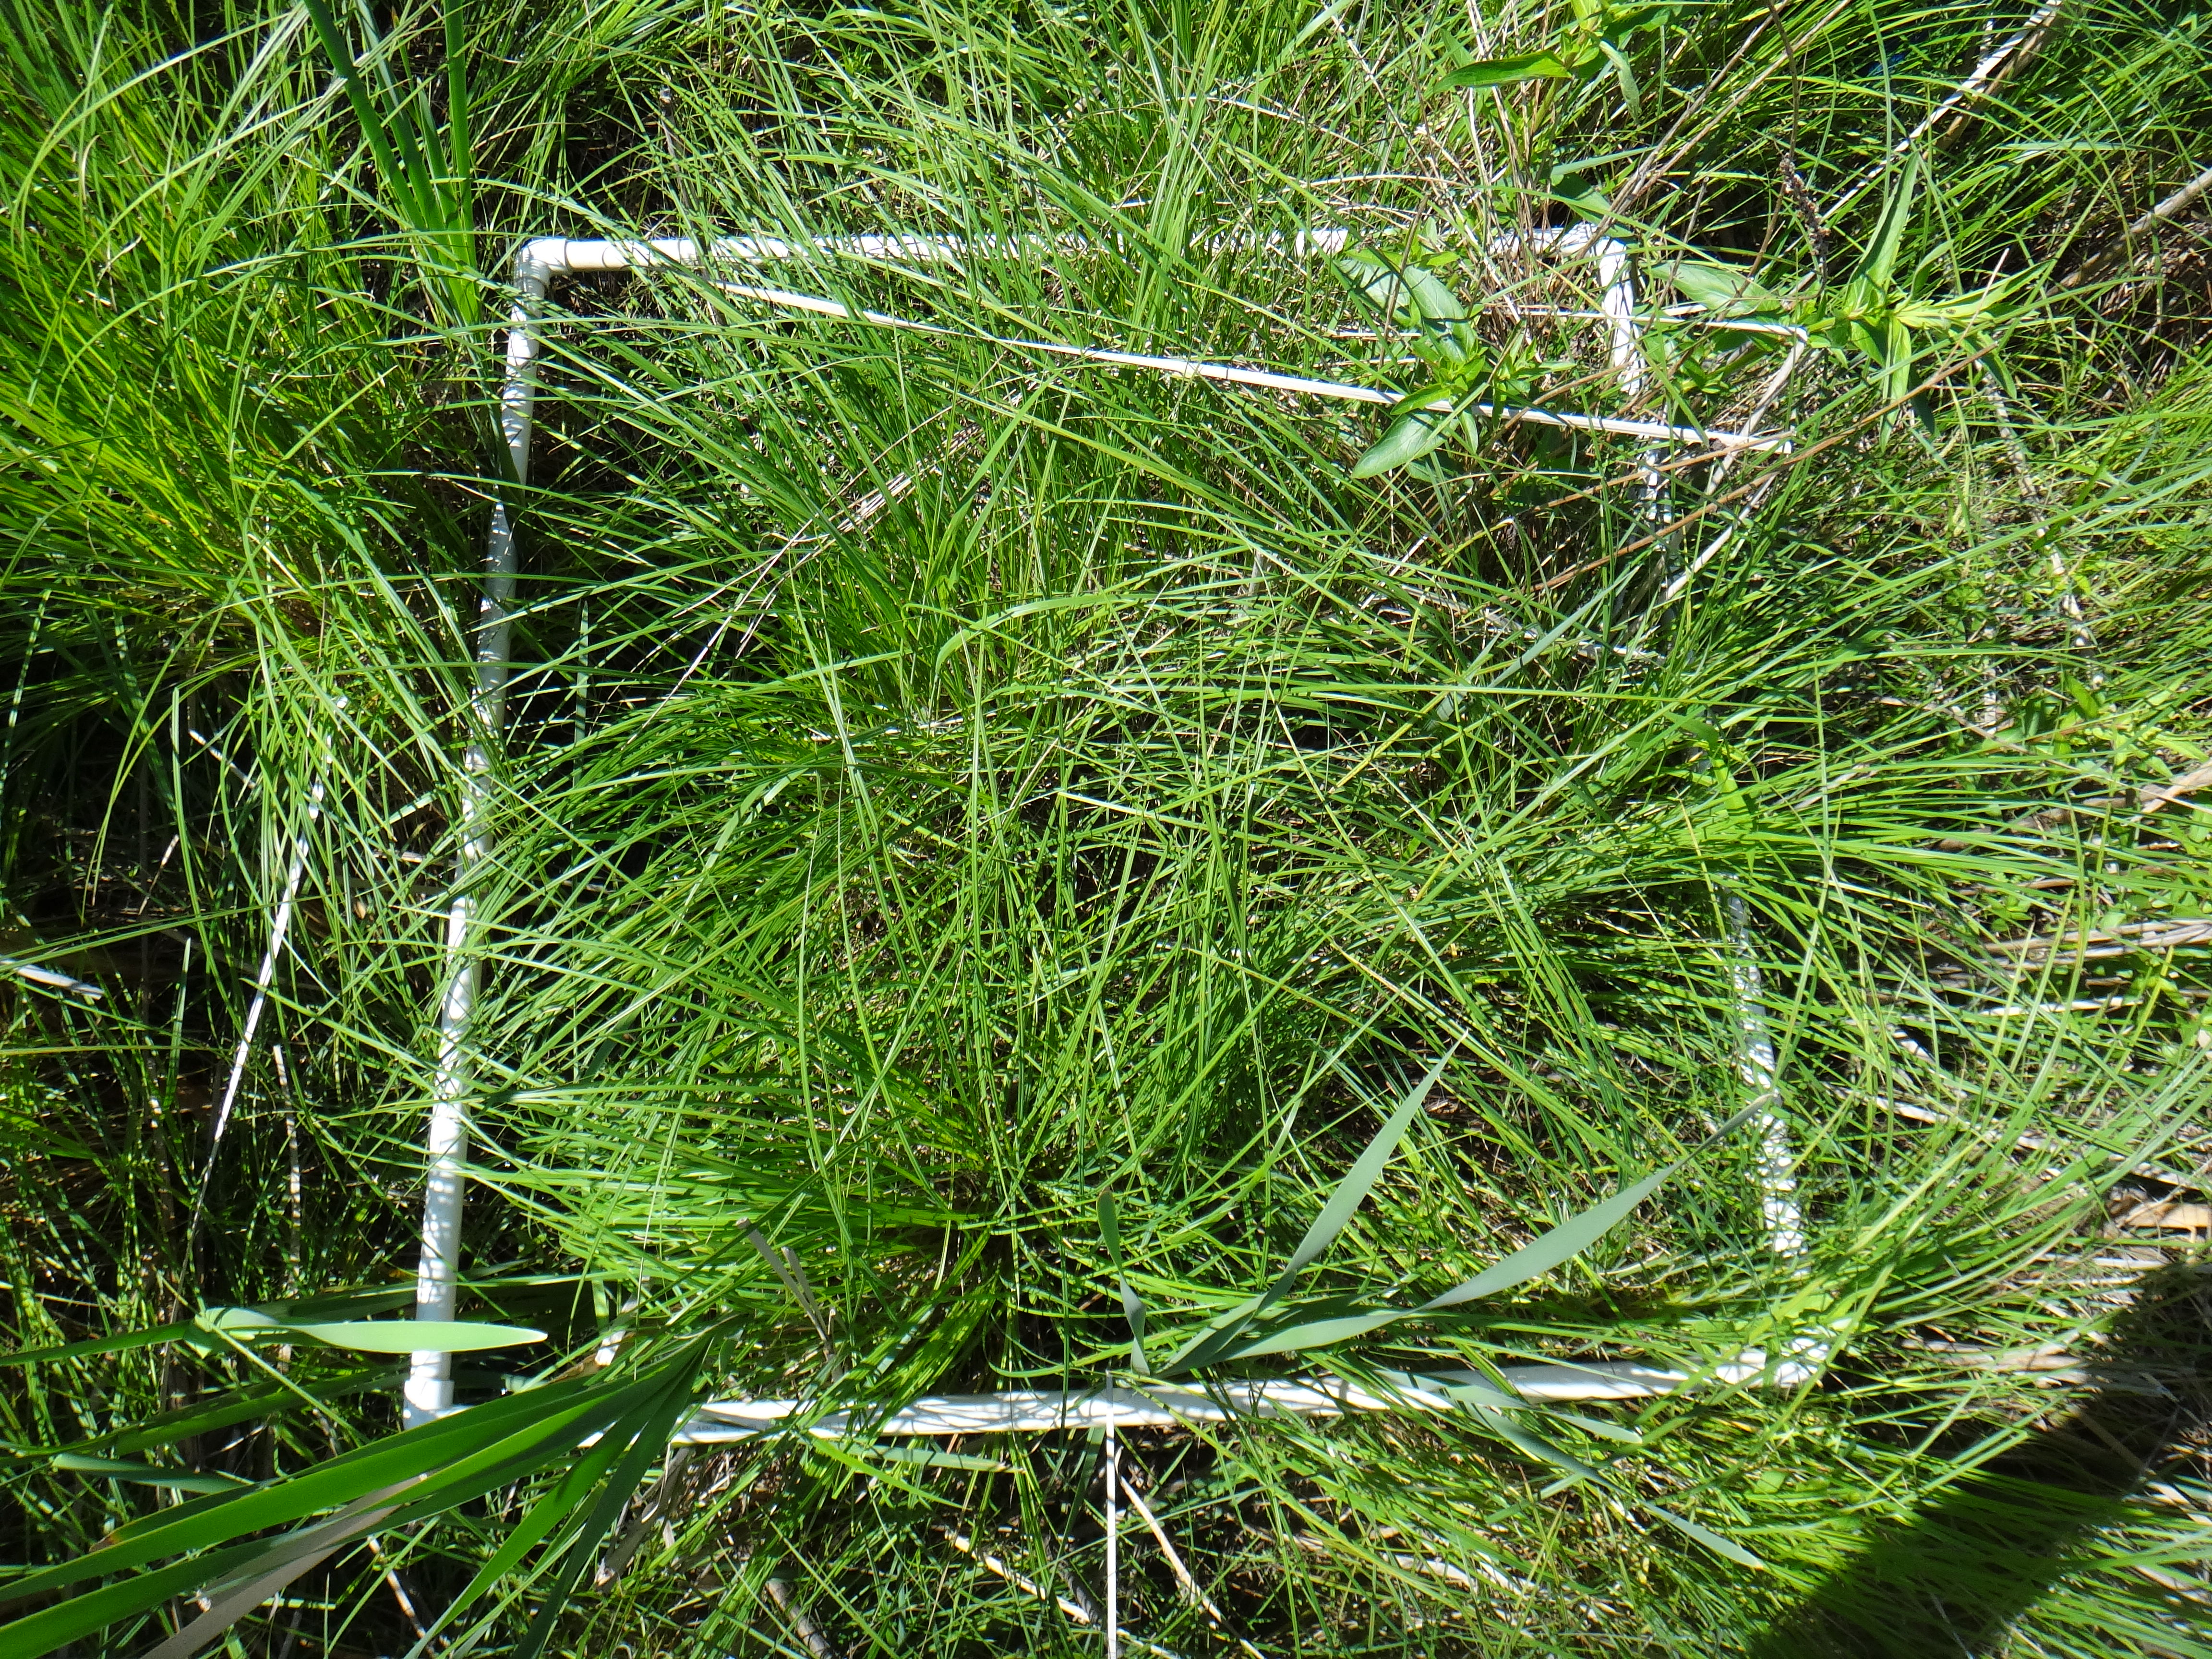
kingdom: Plantae
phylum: Tracheophyta
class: Magnoliopsida
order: Ericales
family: Primulaceae
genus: Lysimachia
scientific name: Lysimachia thyrsiflora
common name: Tufted loosestrife
